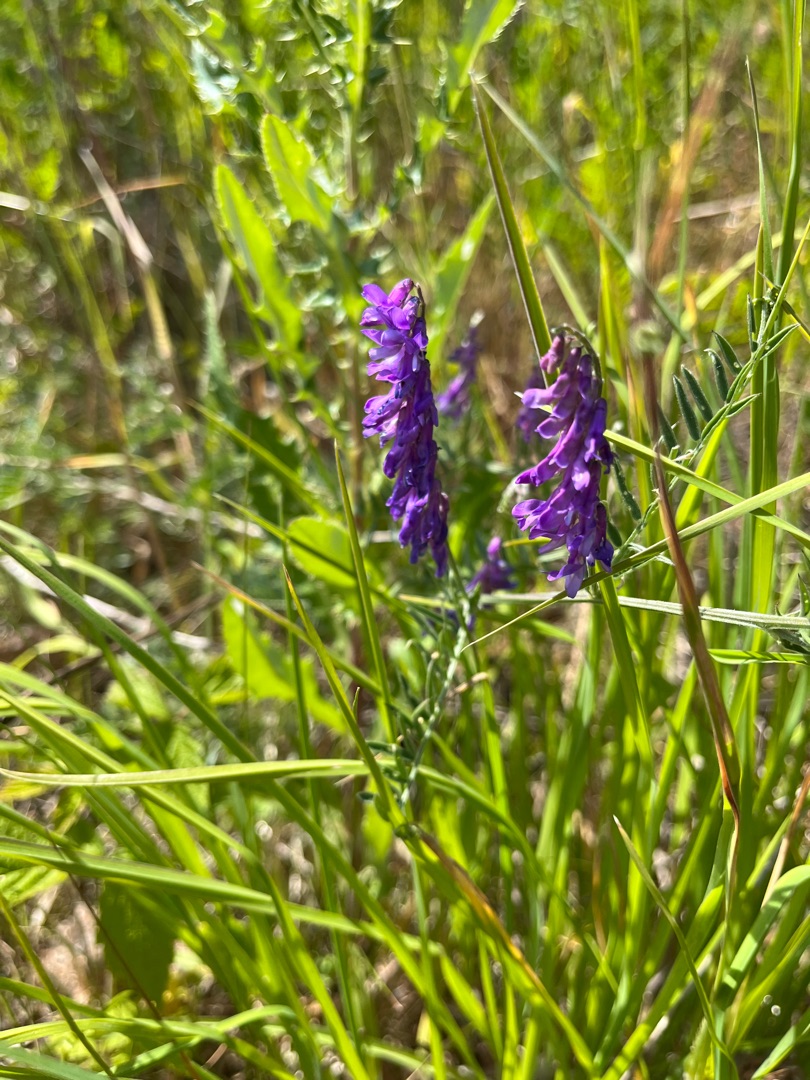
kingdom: Plantae
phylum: Tracheophyta
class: Magnoliopsida
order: Fabales
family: Fabaceae
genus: Vicia
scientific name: Vicia cracca
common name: Muse-vikke
